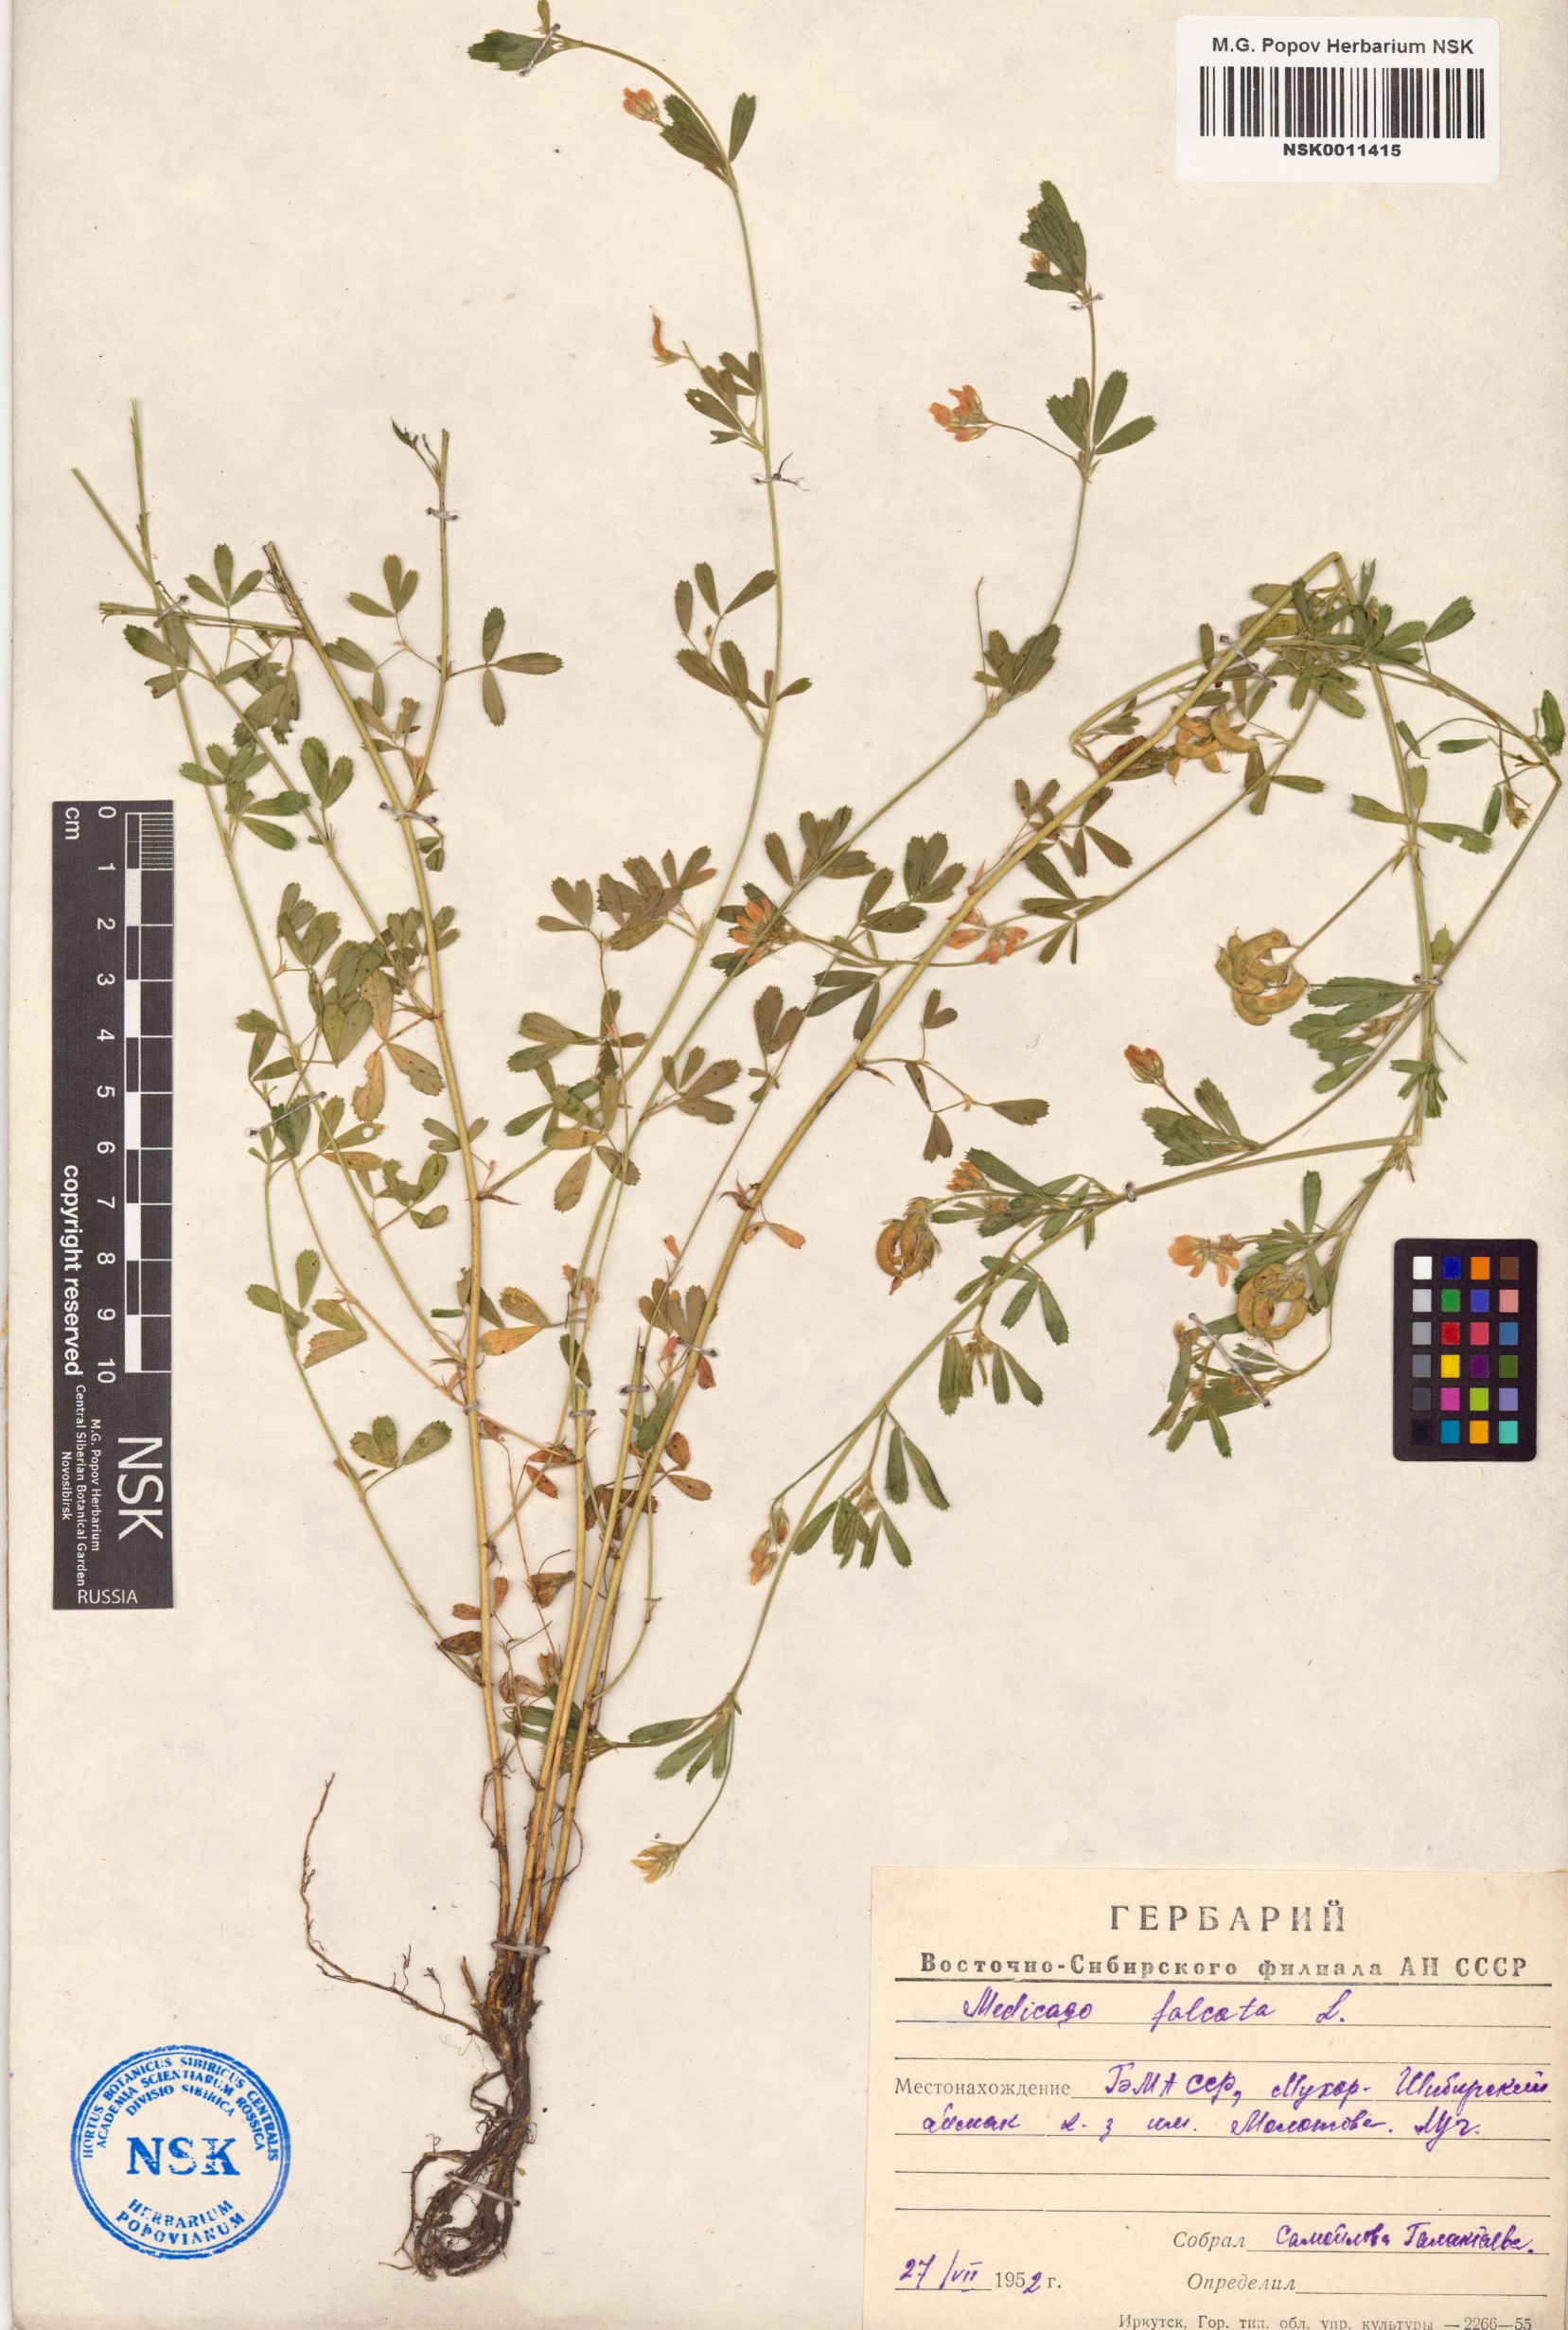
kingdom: Plantae
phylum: Tracheophyta
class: Magnoliopsida
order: Fabales
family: Fabaceae
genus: Medicago
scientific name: Medicago falcata
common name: Sickle medick
